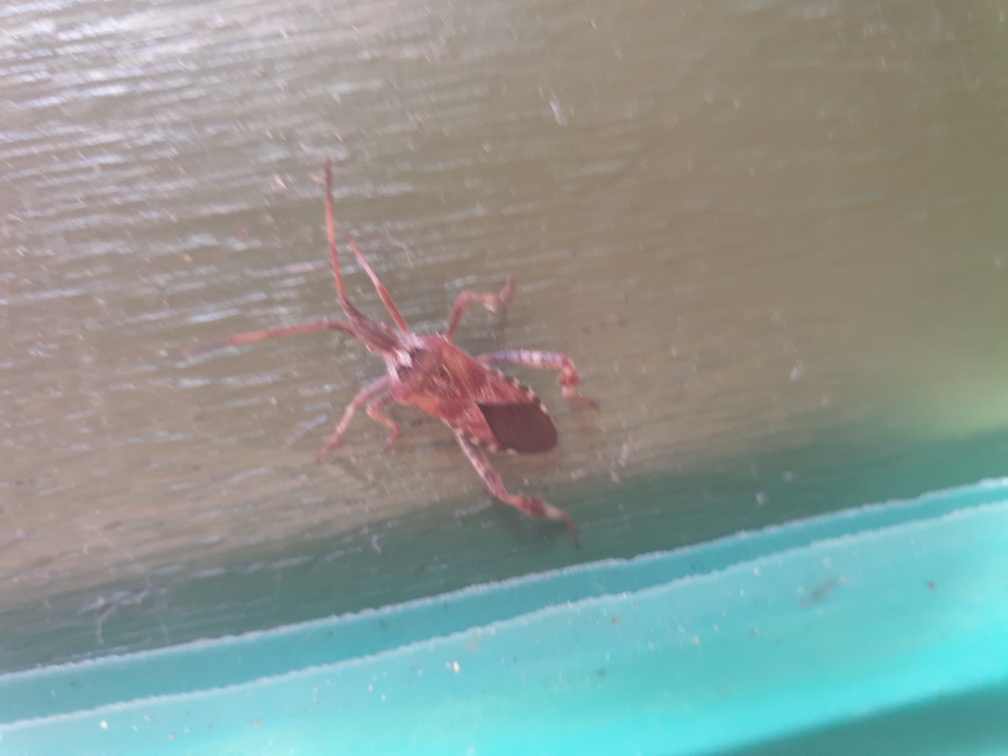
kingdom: Animalia
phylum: Arthropoda
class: Insecta
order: Hemiptera
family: Coreidae
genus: Leptoglossus
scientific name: Leptoglossus occidentalis
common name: Amerikansk fyrretæge
